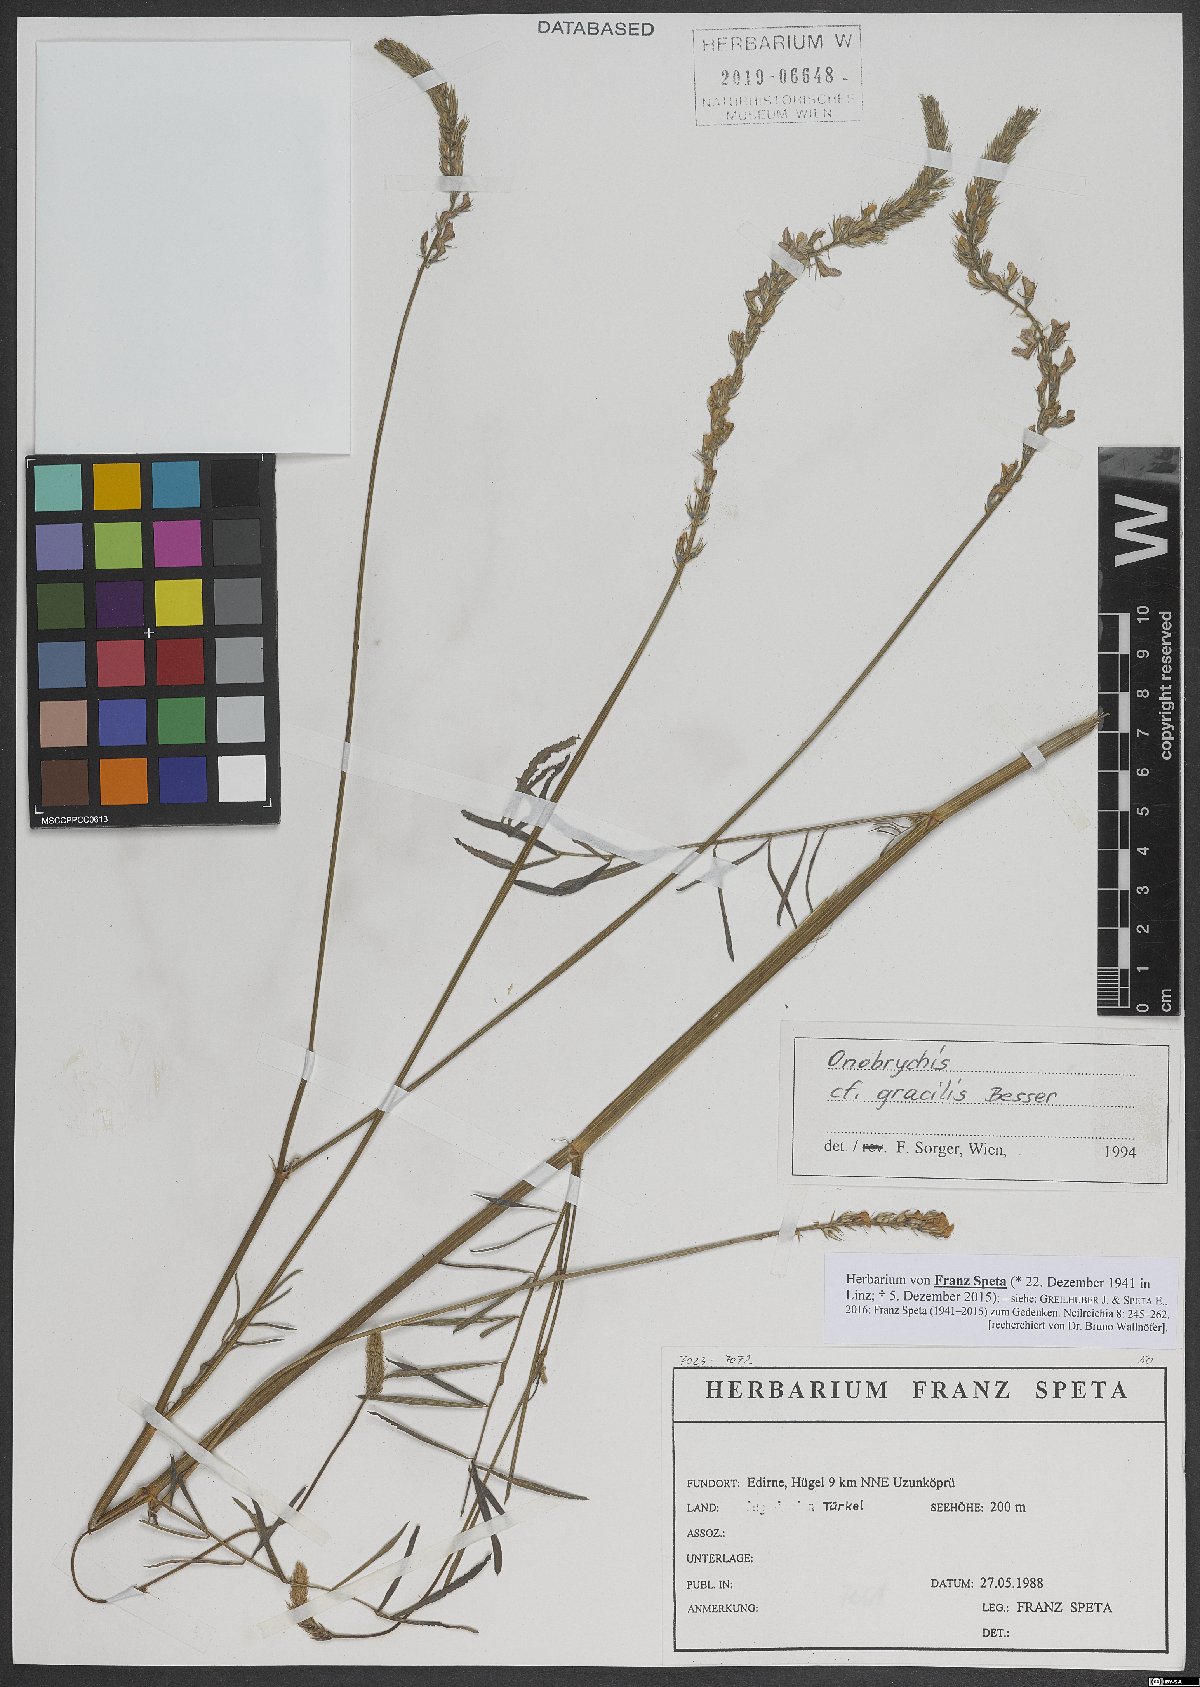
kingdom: Plantae
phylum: Tracheophyta
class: Magnoliopsida
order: Fabales
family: Fabaceae
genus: Onobrychis
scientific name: Onobrychis gracilis
